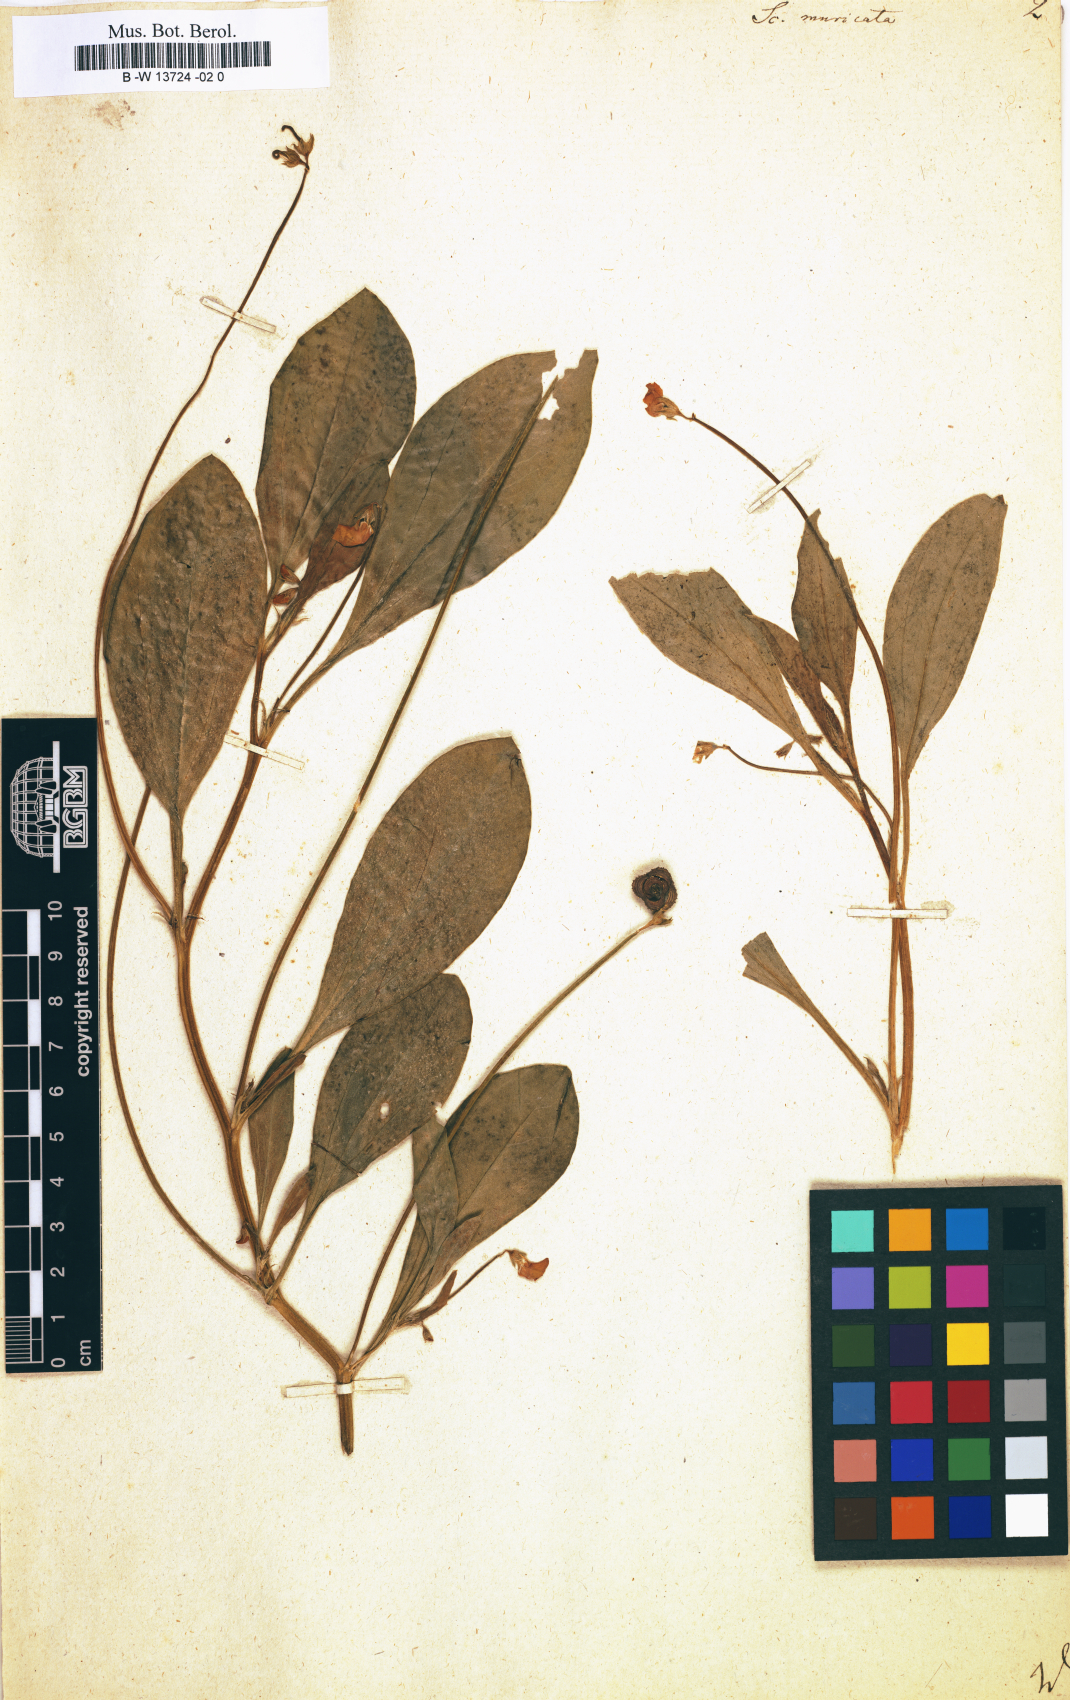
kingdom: Plantae
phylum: Tracheophyta
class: Magnoliopsida
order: Fabales
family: Fabaceae
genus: Scorpiurus
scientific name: Scorpiurus muricatus
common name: Caterpillar-plant
